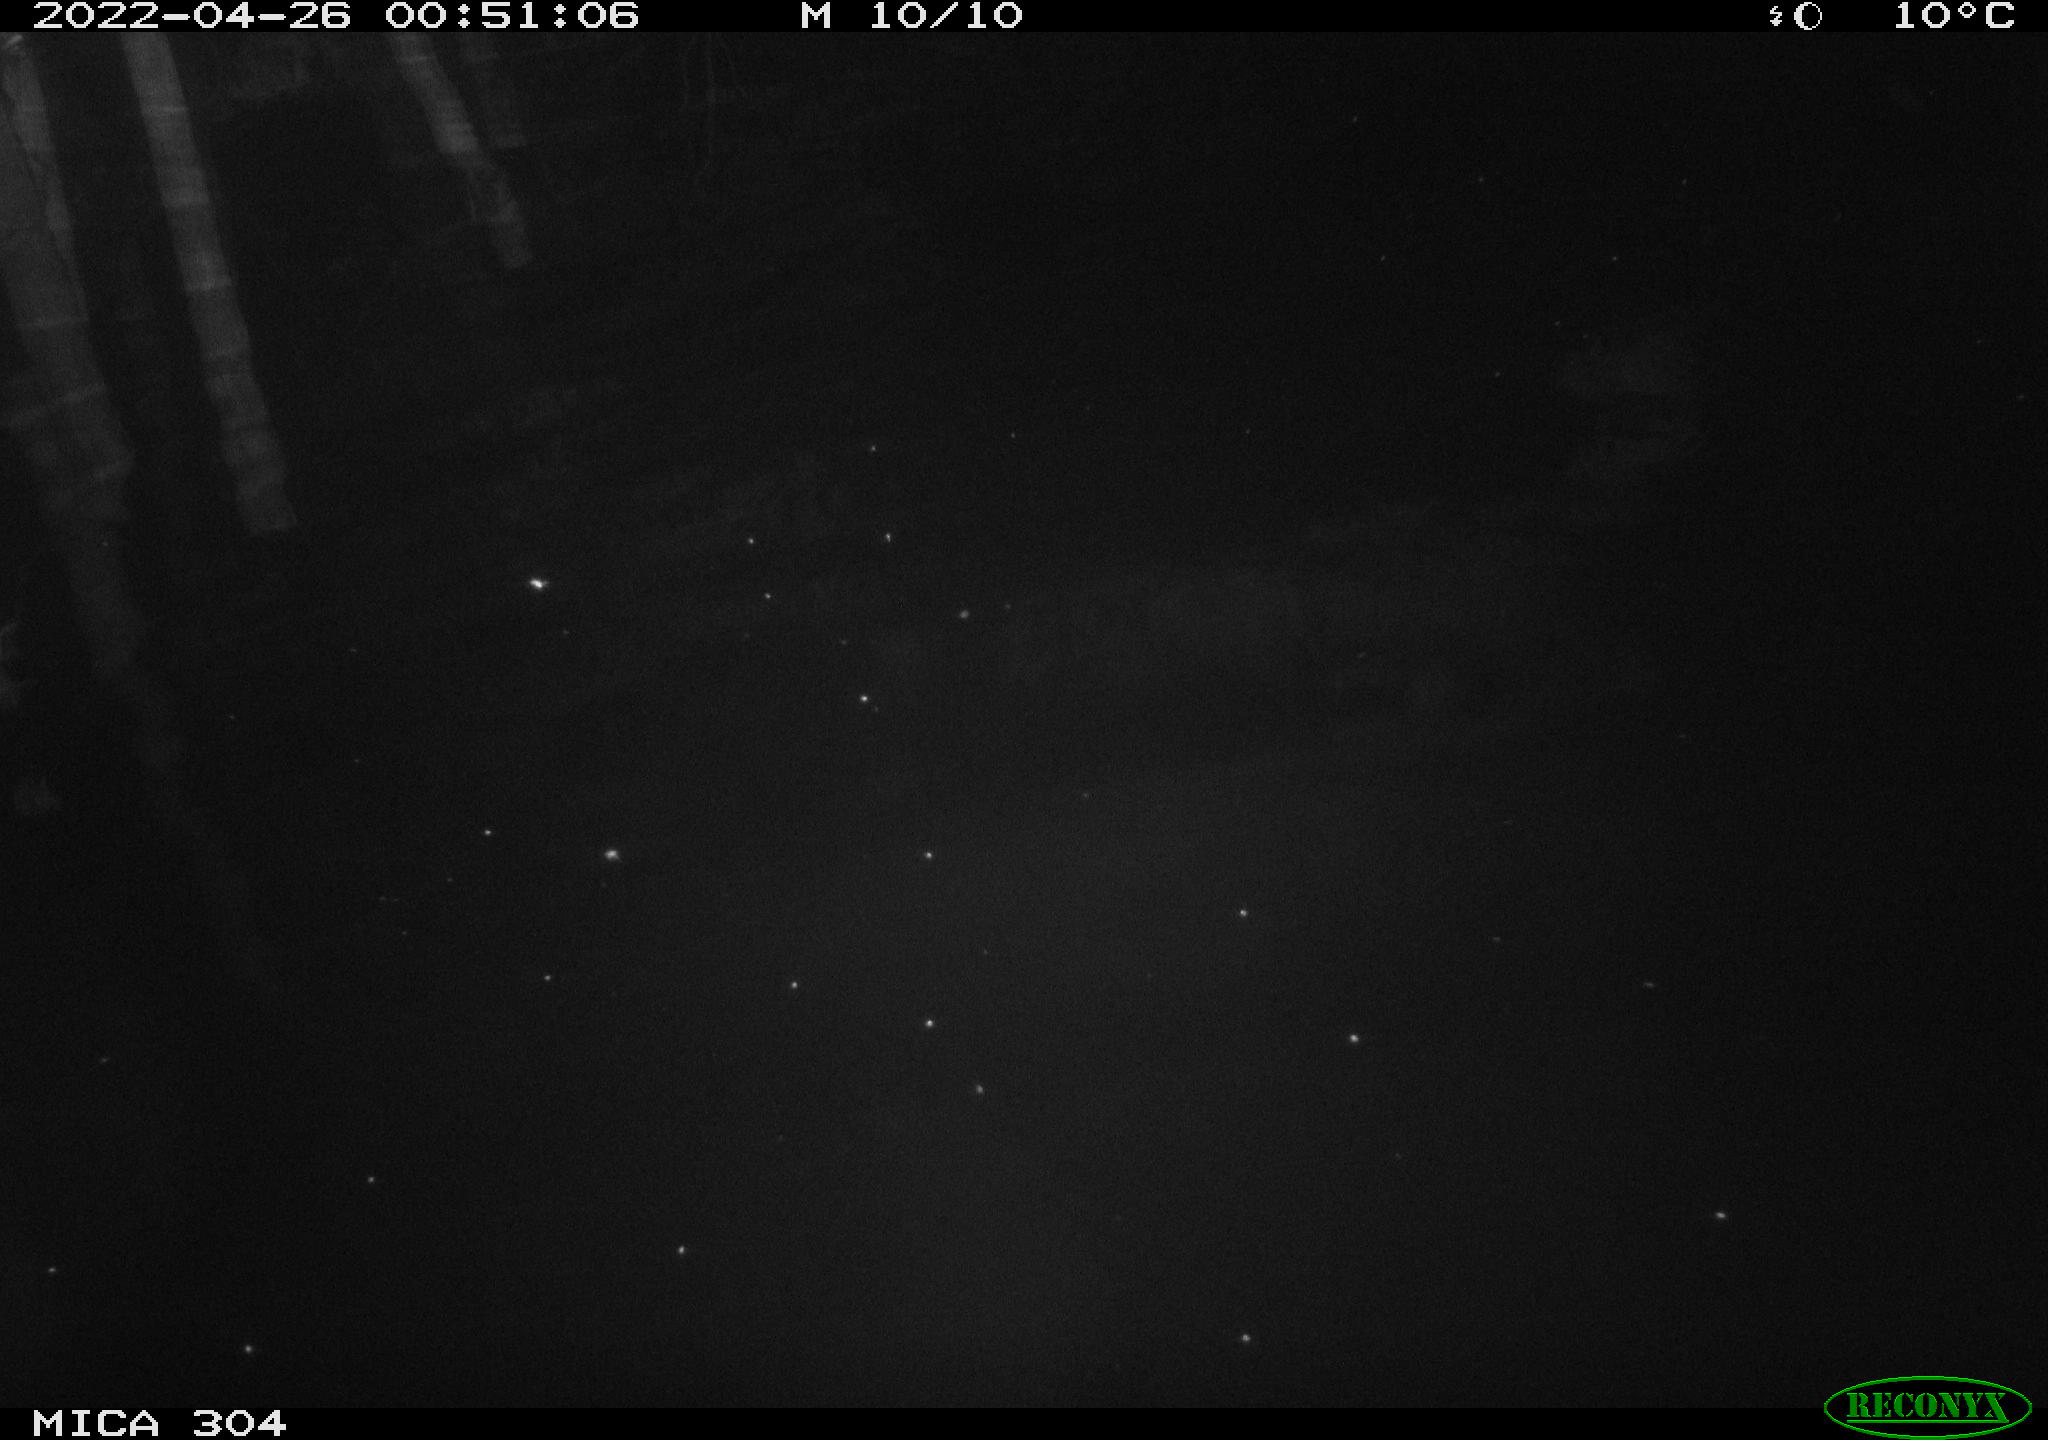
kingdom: Animalia
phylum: Chordata
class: Aves
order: Anseriformes
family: Anatidae
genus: Anas
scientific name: Anas platyrhynchos
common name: Mallard
